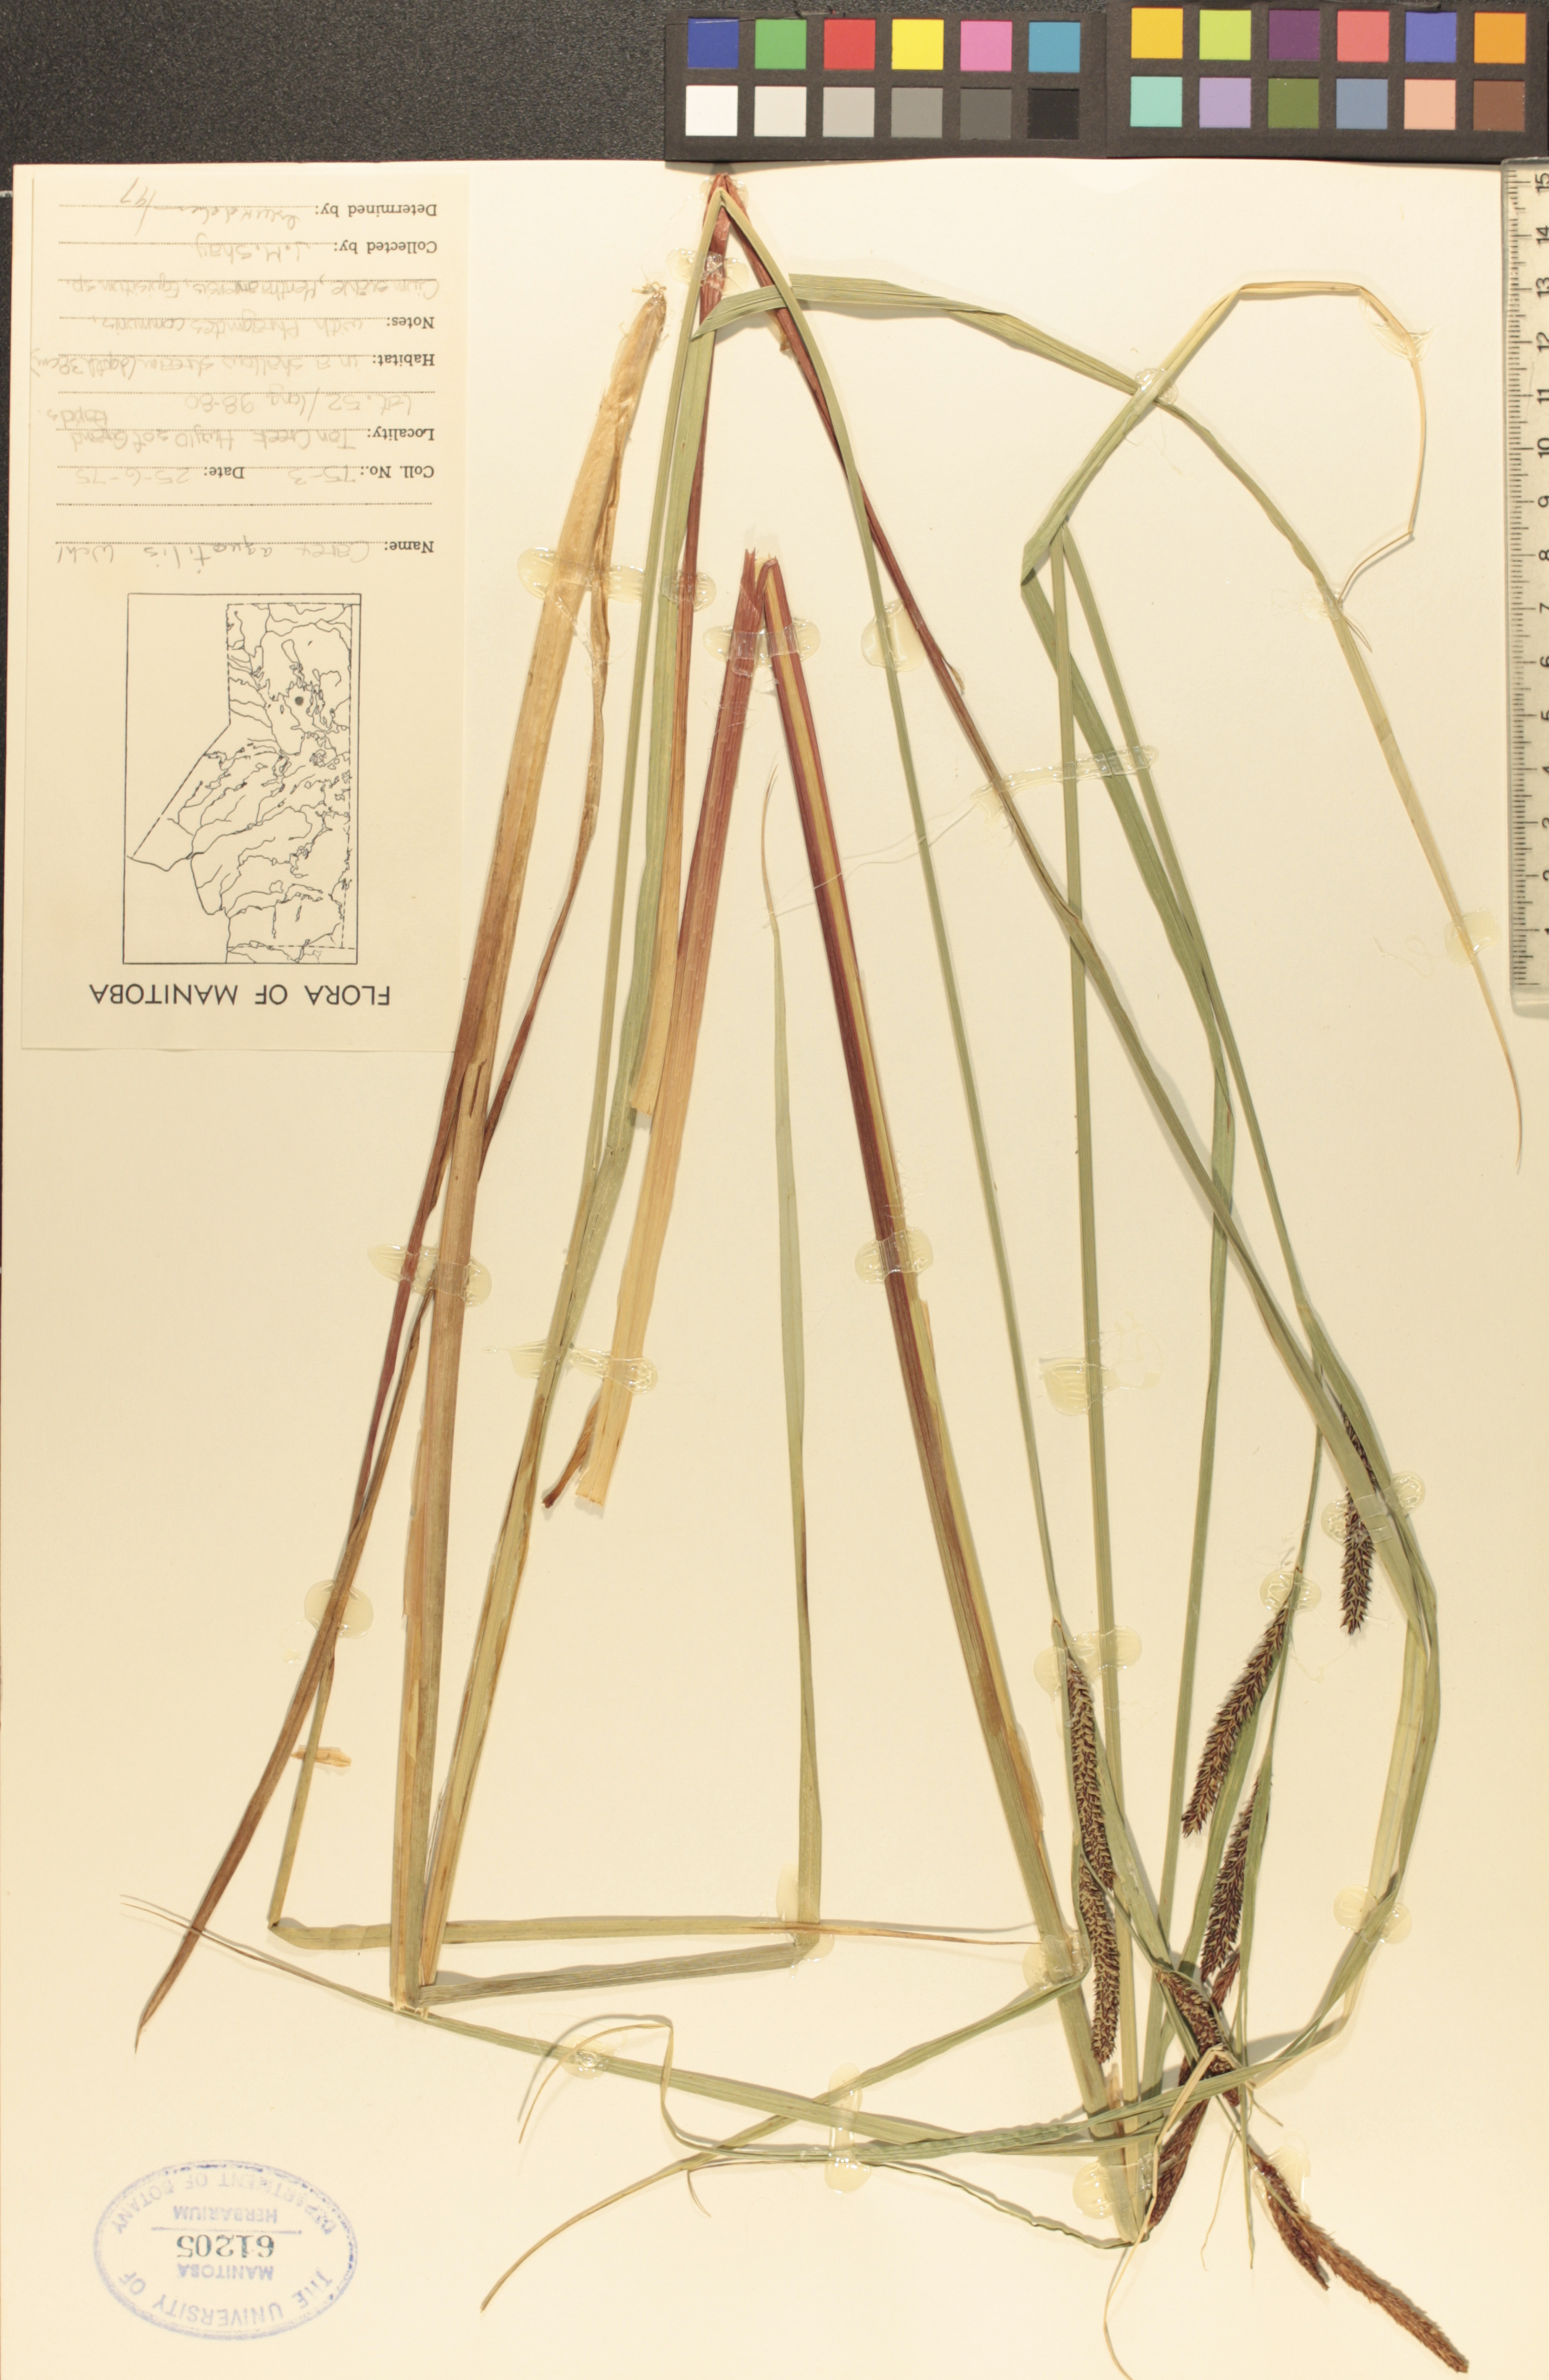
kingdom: Plantae
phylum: Tracheophyta
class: Liliopsida
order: Poales
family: Cyperaceae
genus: Carex
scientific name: Carex aquatilis
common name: Water sedge
